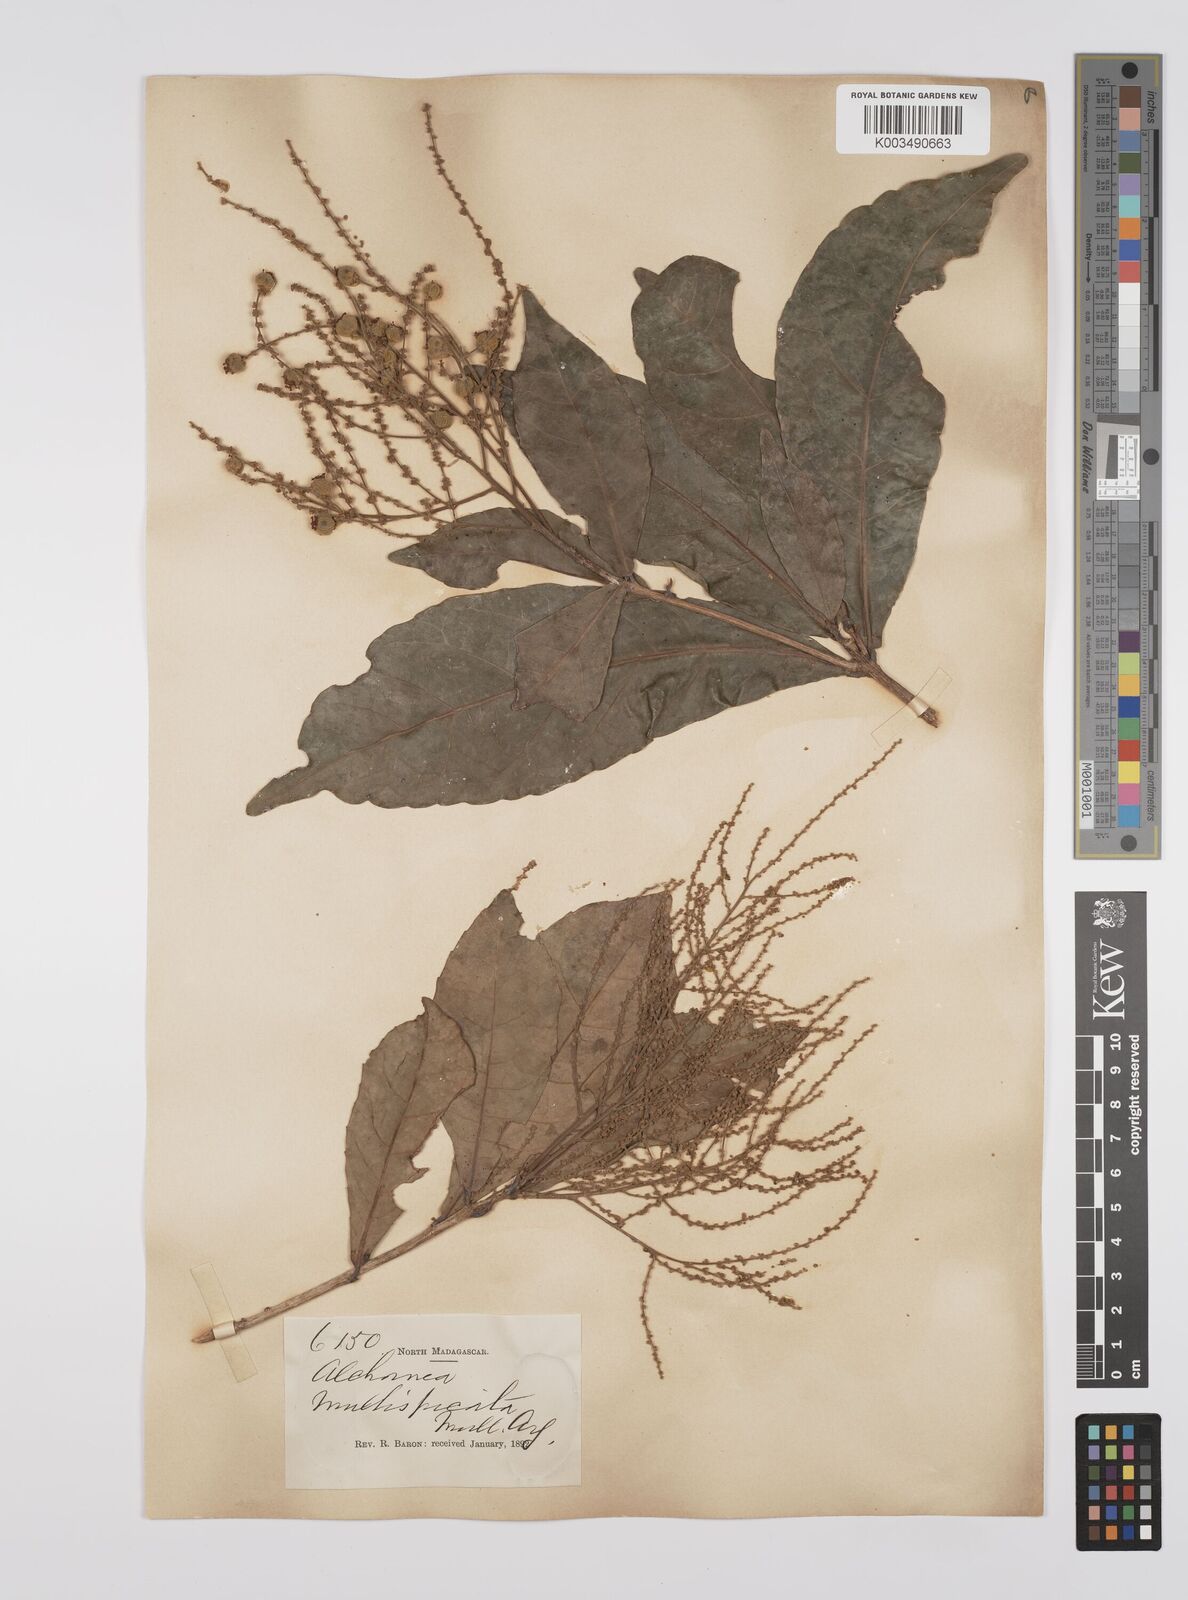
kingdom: Plantae
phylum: Tracheophyta
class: Magnoliopsida
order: Malpighiales
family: Euphorbiaceae
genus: Orfilea
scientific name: Orfilea multispicata
